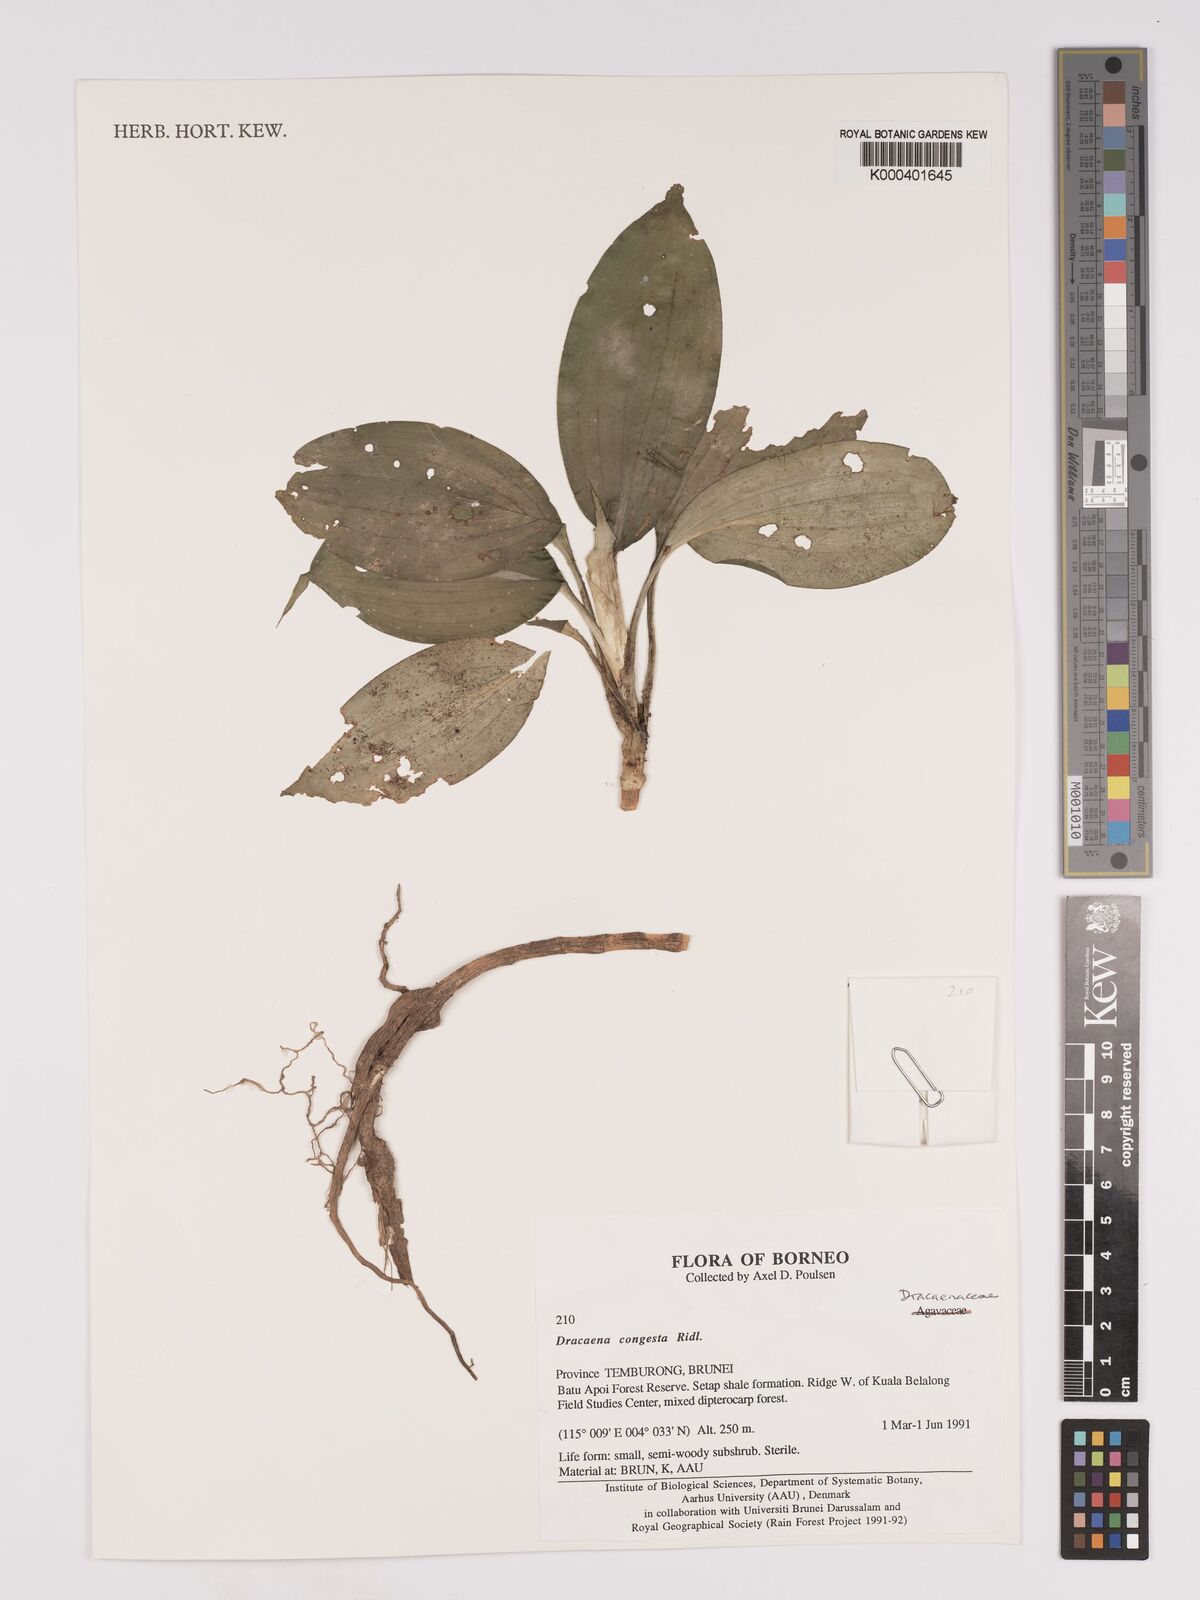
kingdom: Plantae
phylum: Tracheophyta
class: Liliopsida
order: Asparagales
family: Asparagaceae
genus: Dracaena
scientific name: Dracaena chiniana
